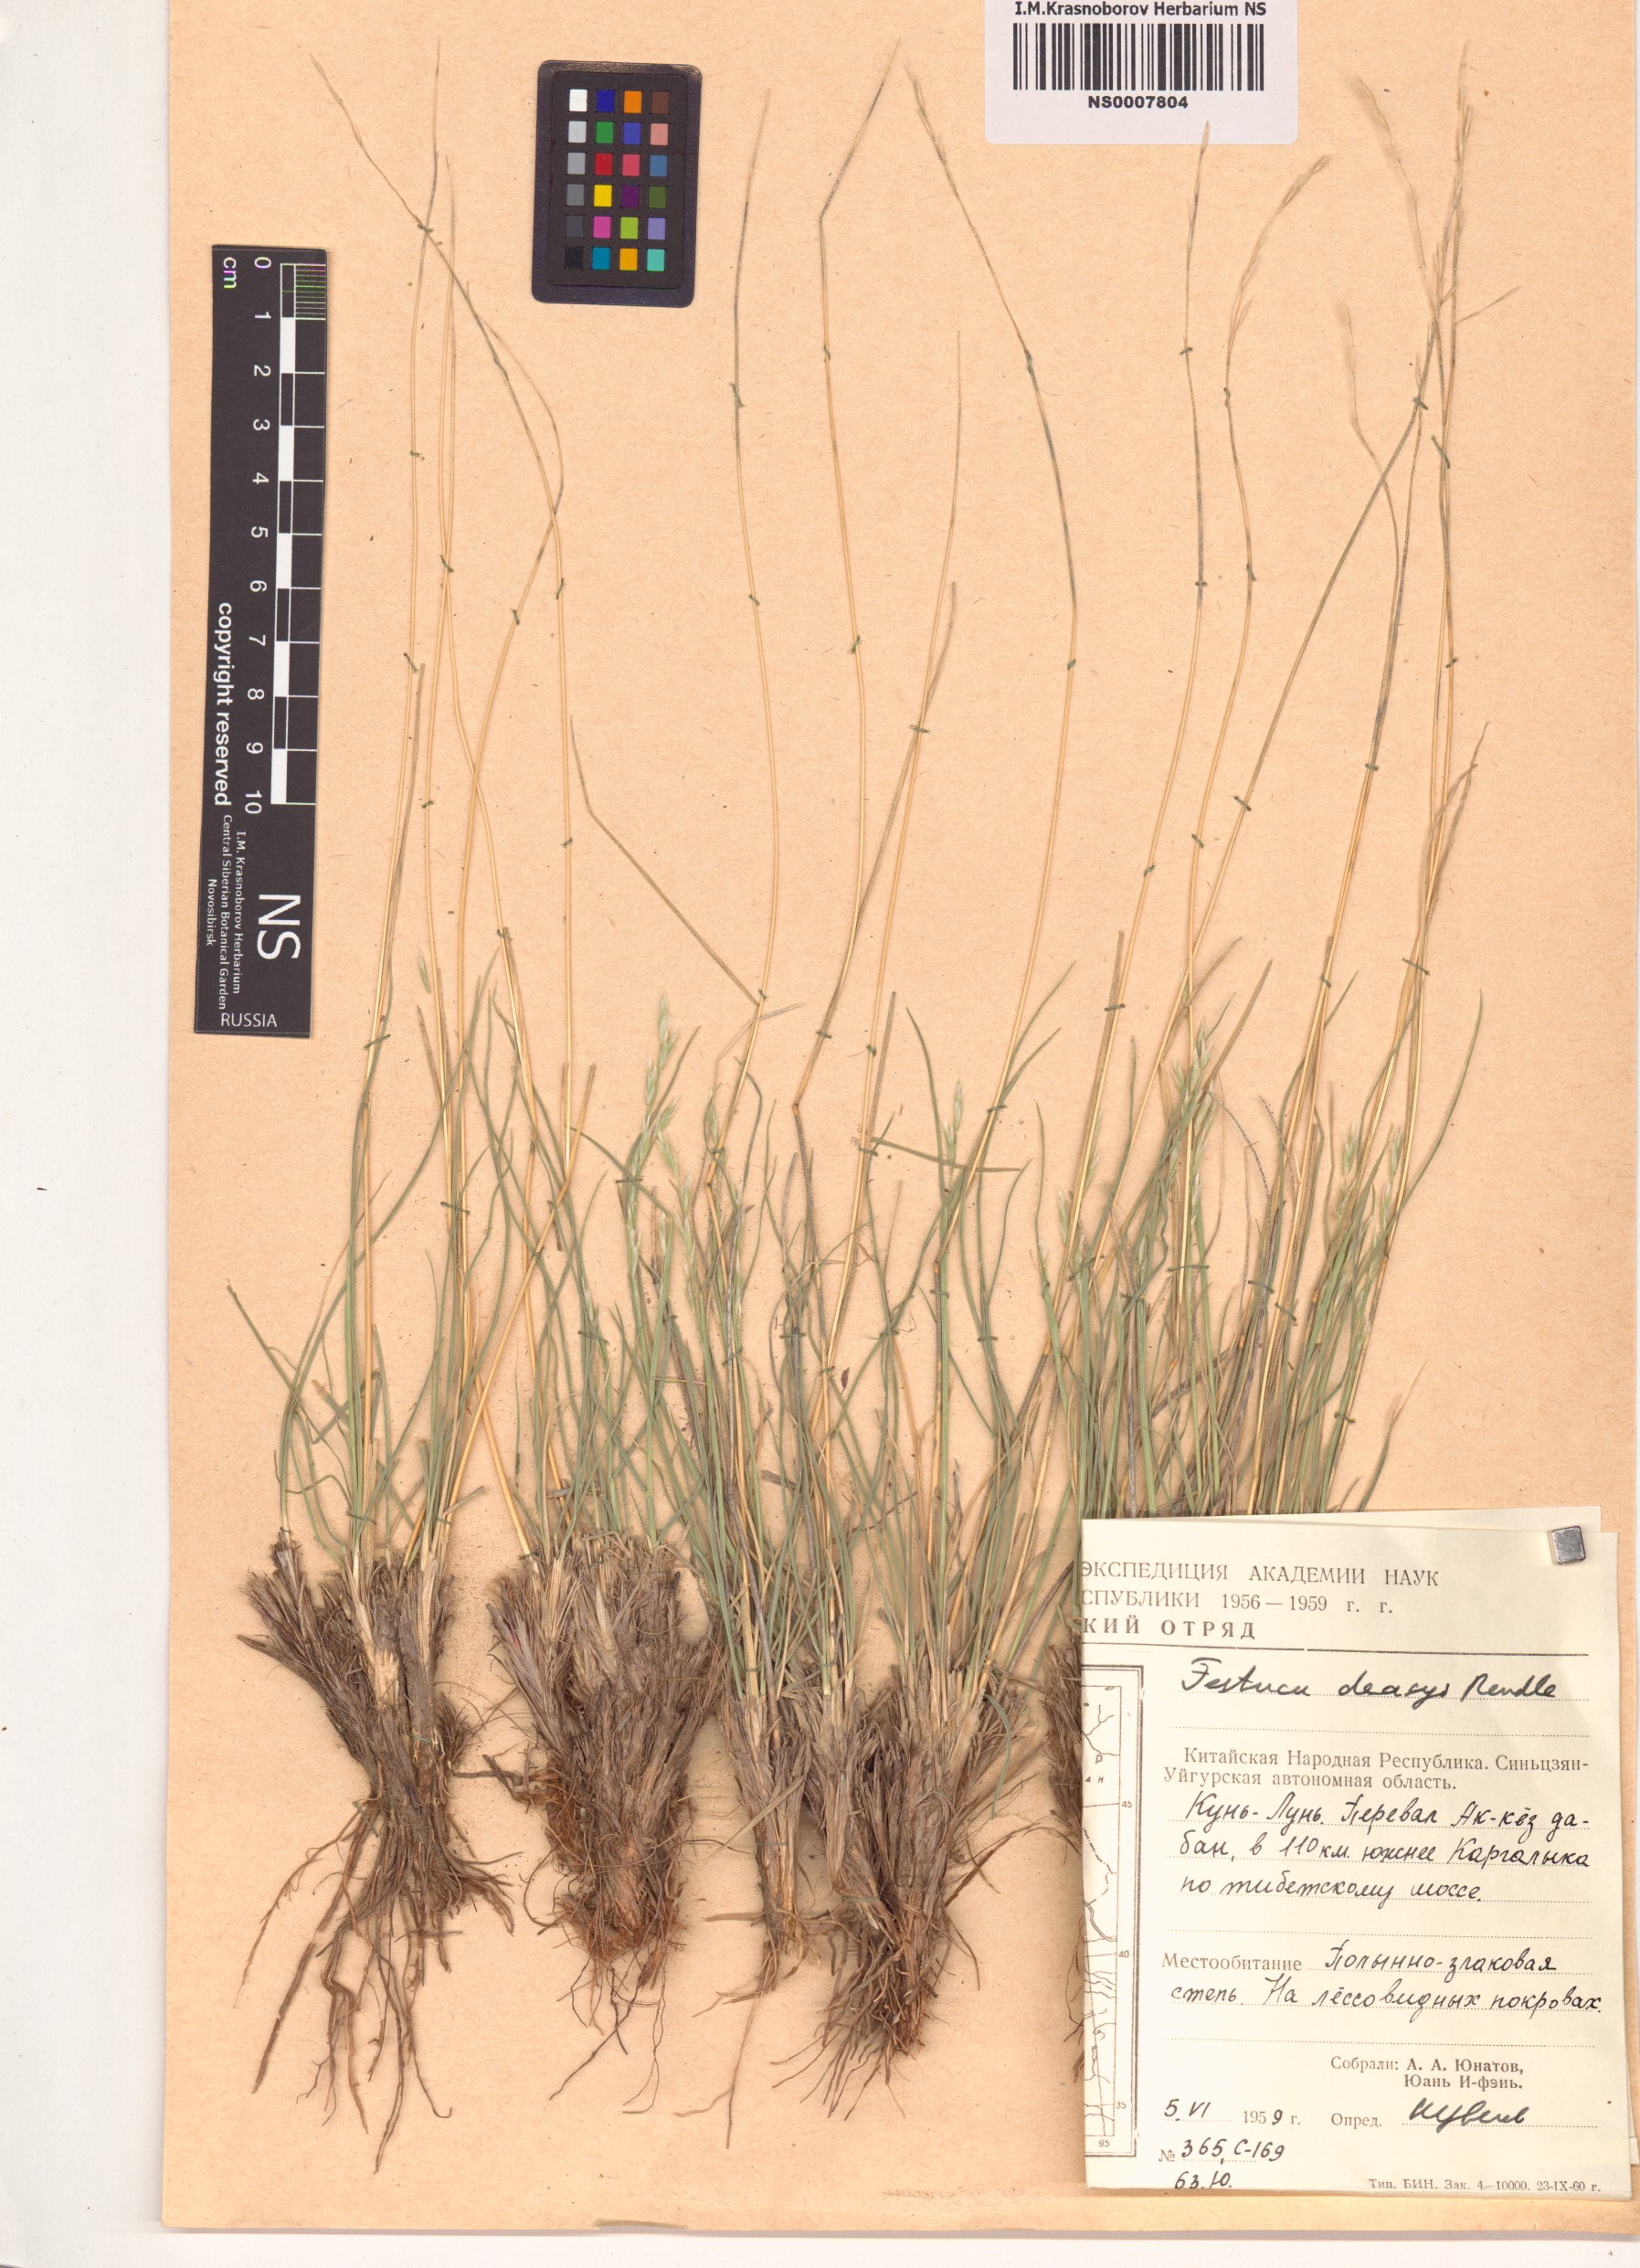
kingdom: Plantae
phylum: Tracheophyta
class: Liliopsida
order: Poales
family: Poaceae
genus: Festuca
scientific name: Festuca olgae
